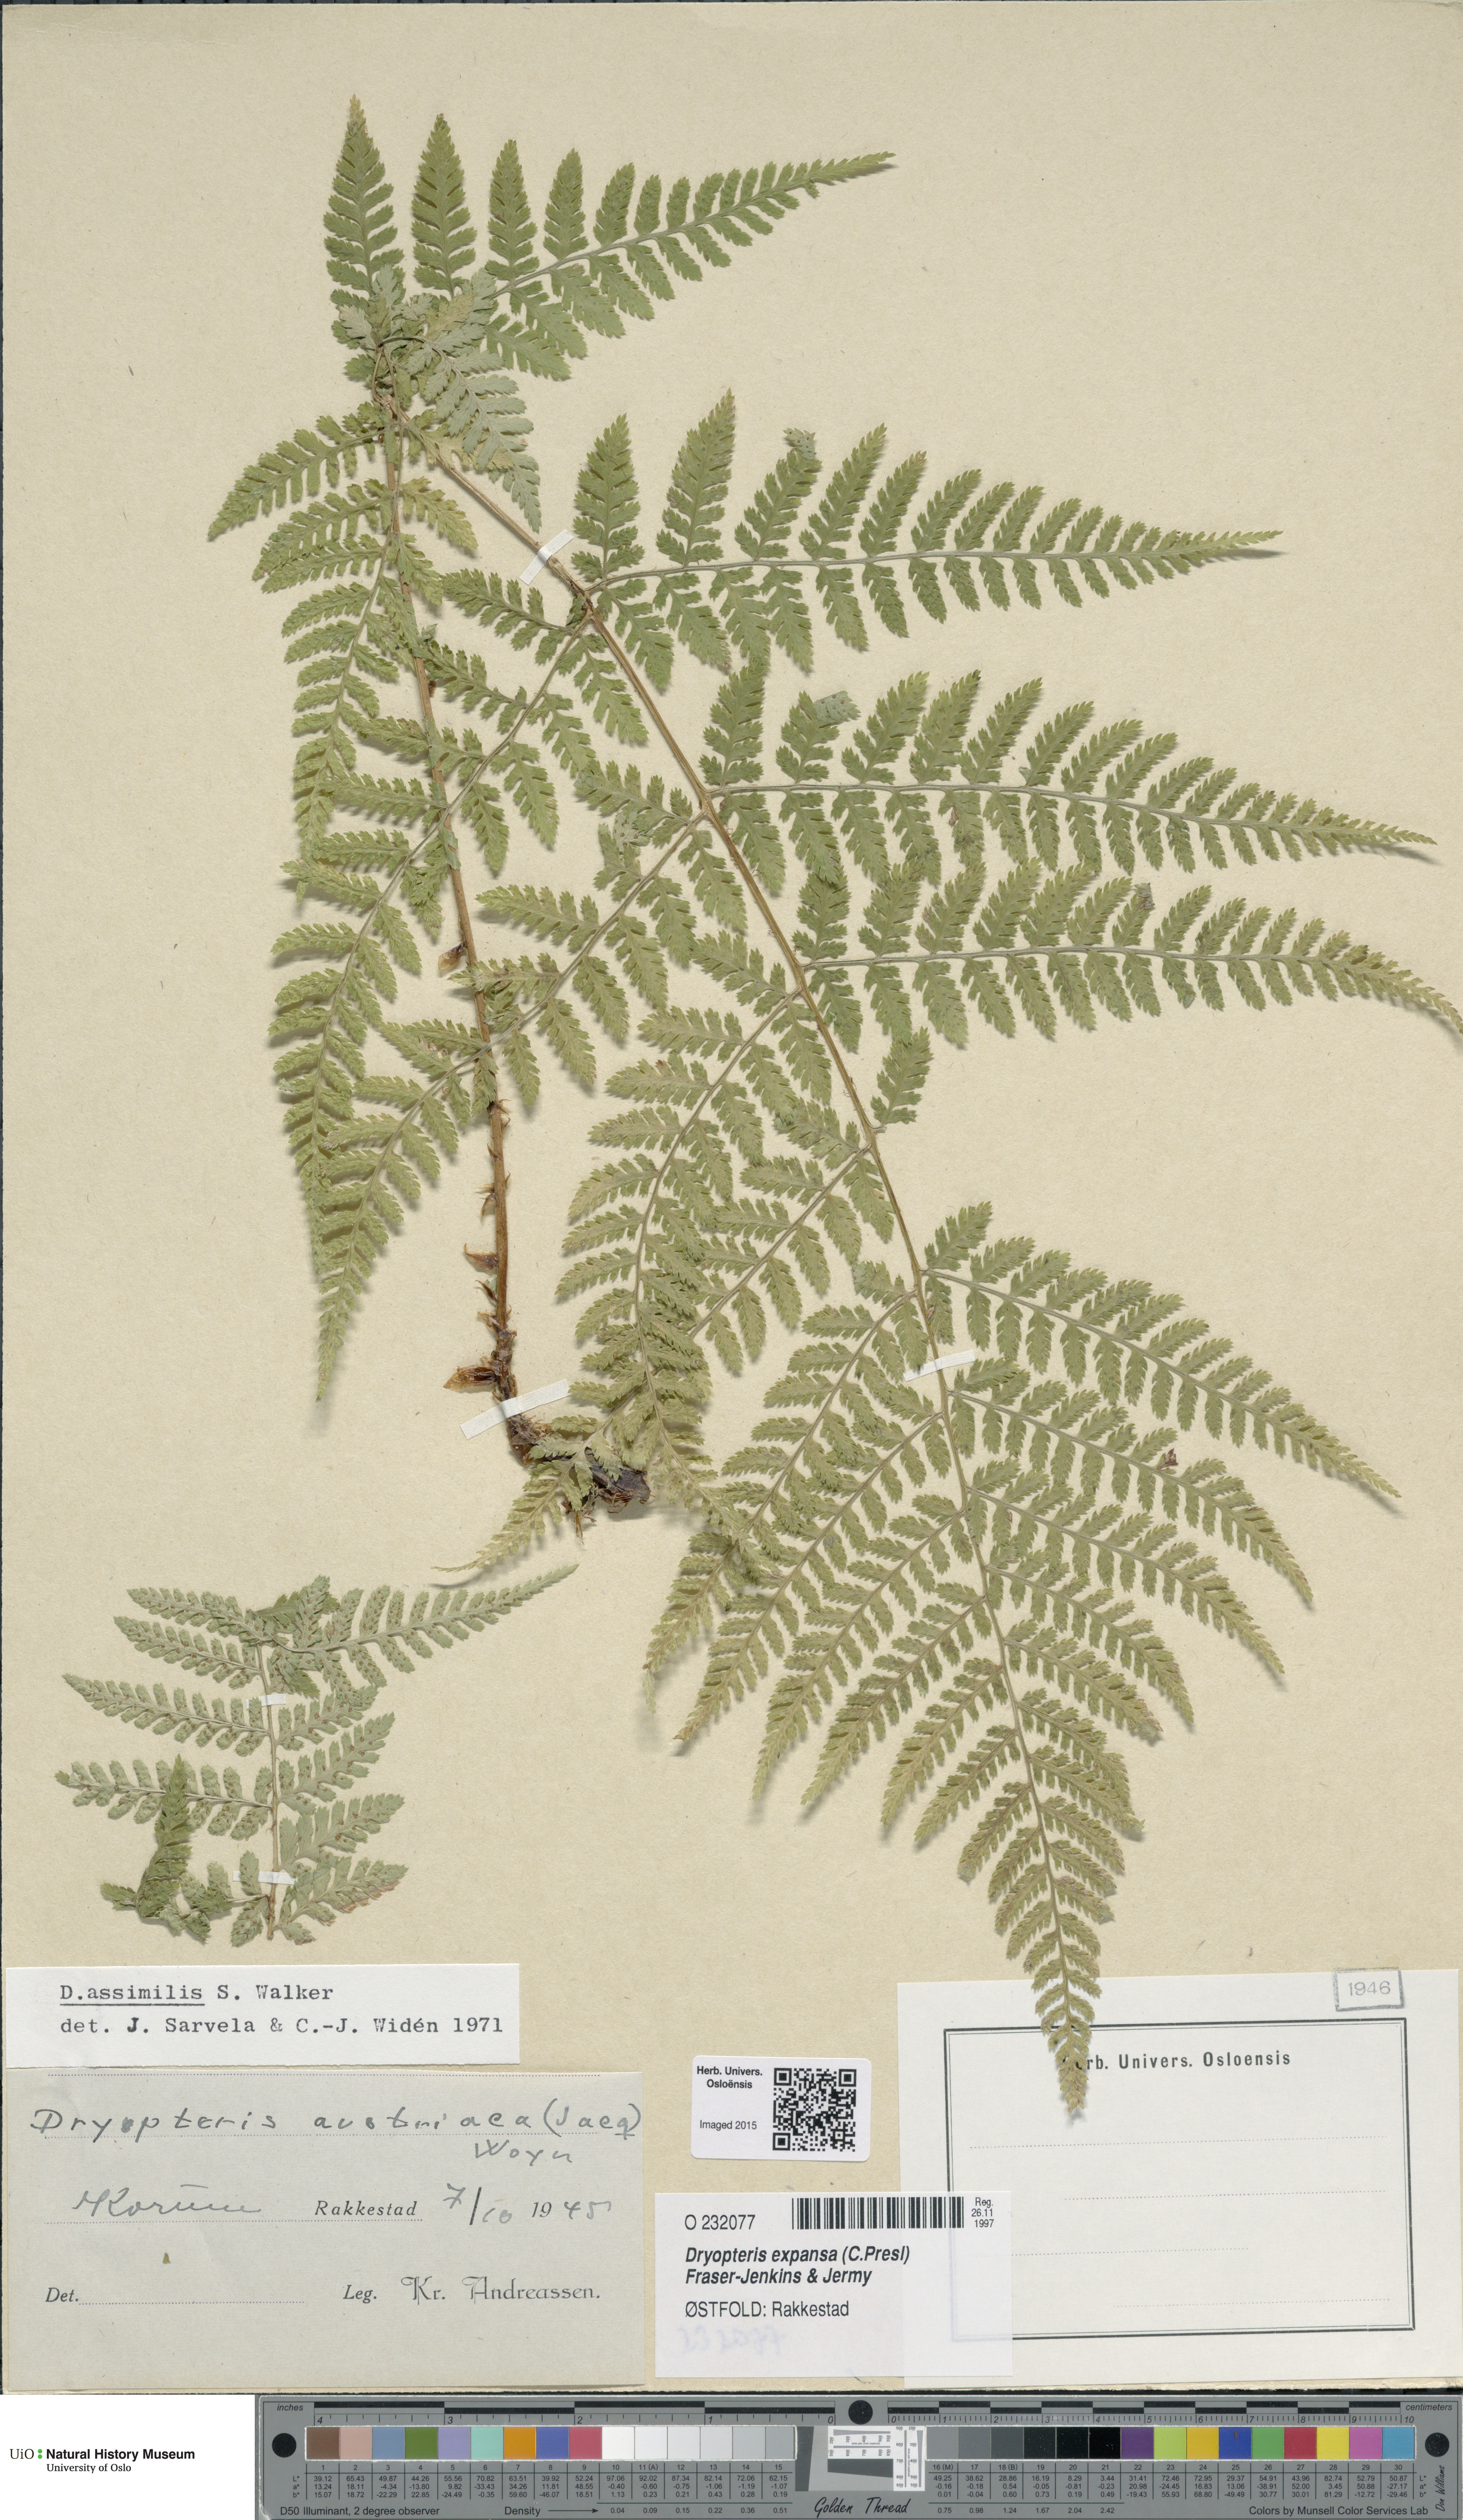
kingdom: Plantae
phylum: Tracheophyta
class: Polypodiopsida
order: Polypodiales
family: Dryopteridaceae
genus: Dryopteris
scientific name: Dryopteris expansa
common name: Northern buckler fern
